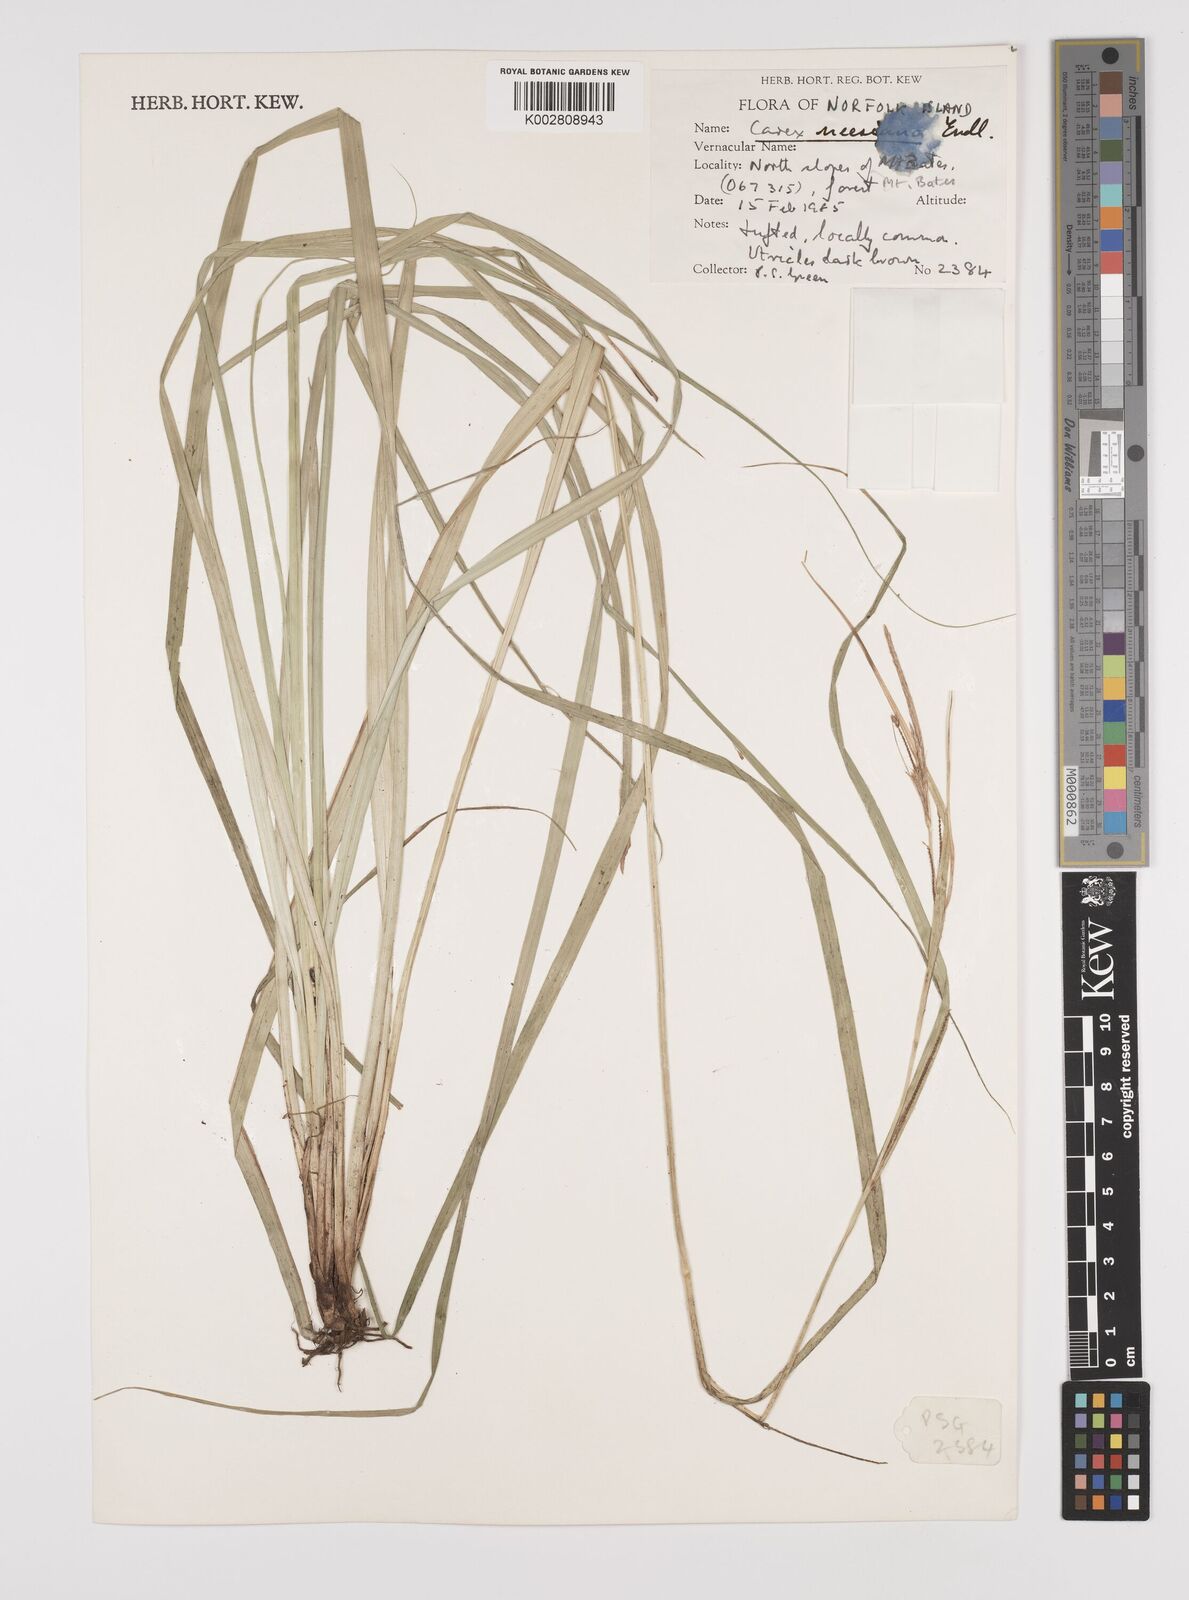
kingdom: Plantae
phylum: Tracheophyta
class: Liliopsida
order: Poales
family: Cyperaceae
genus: Carex
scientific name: Carex neesiana
